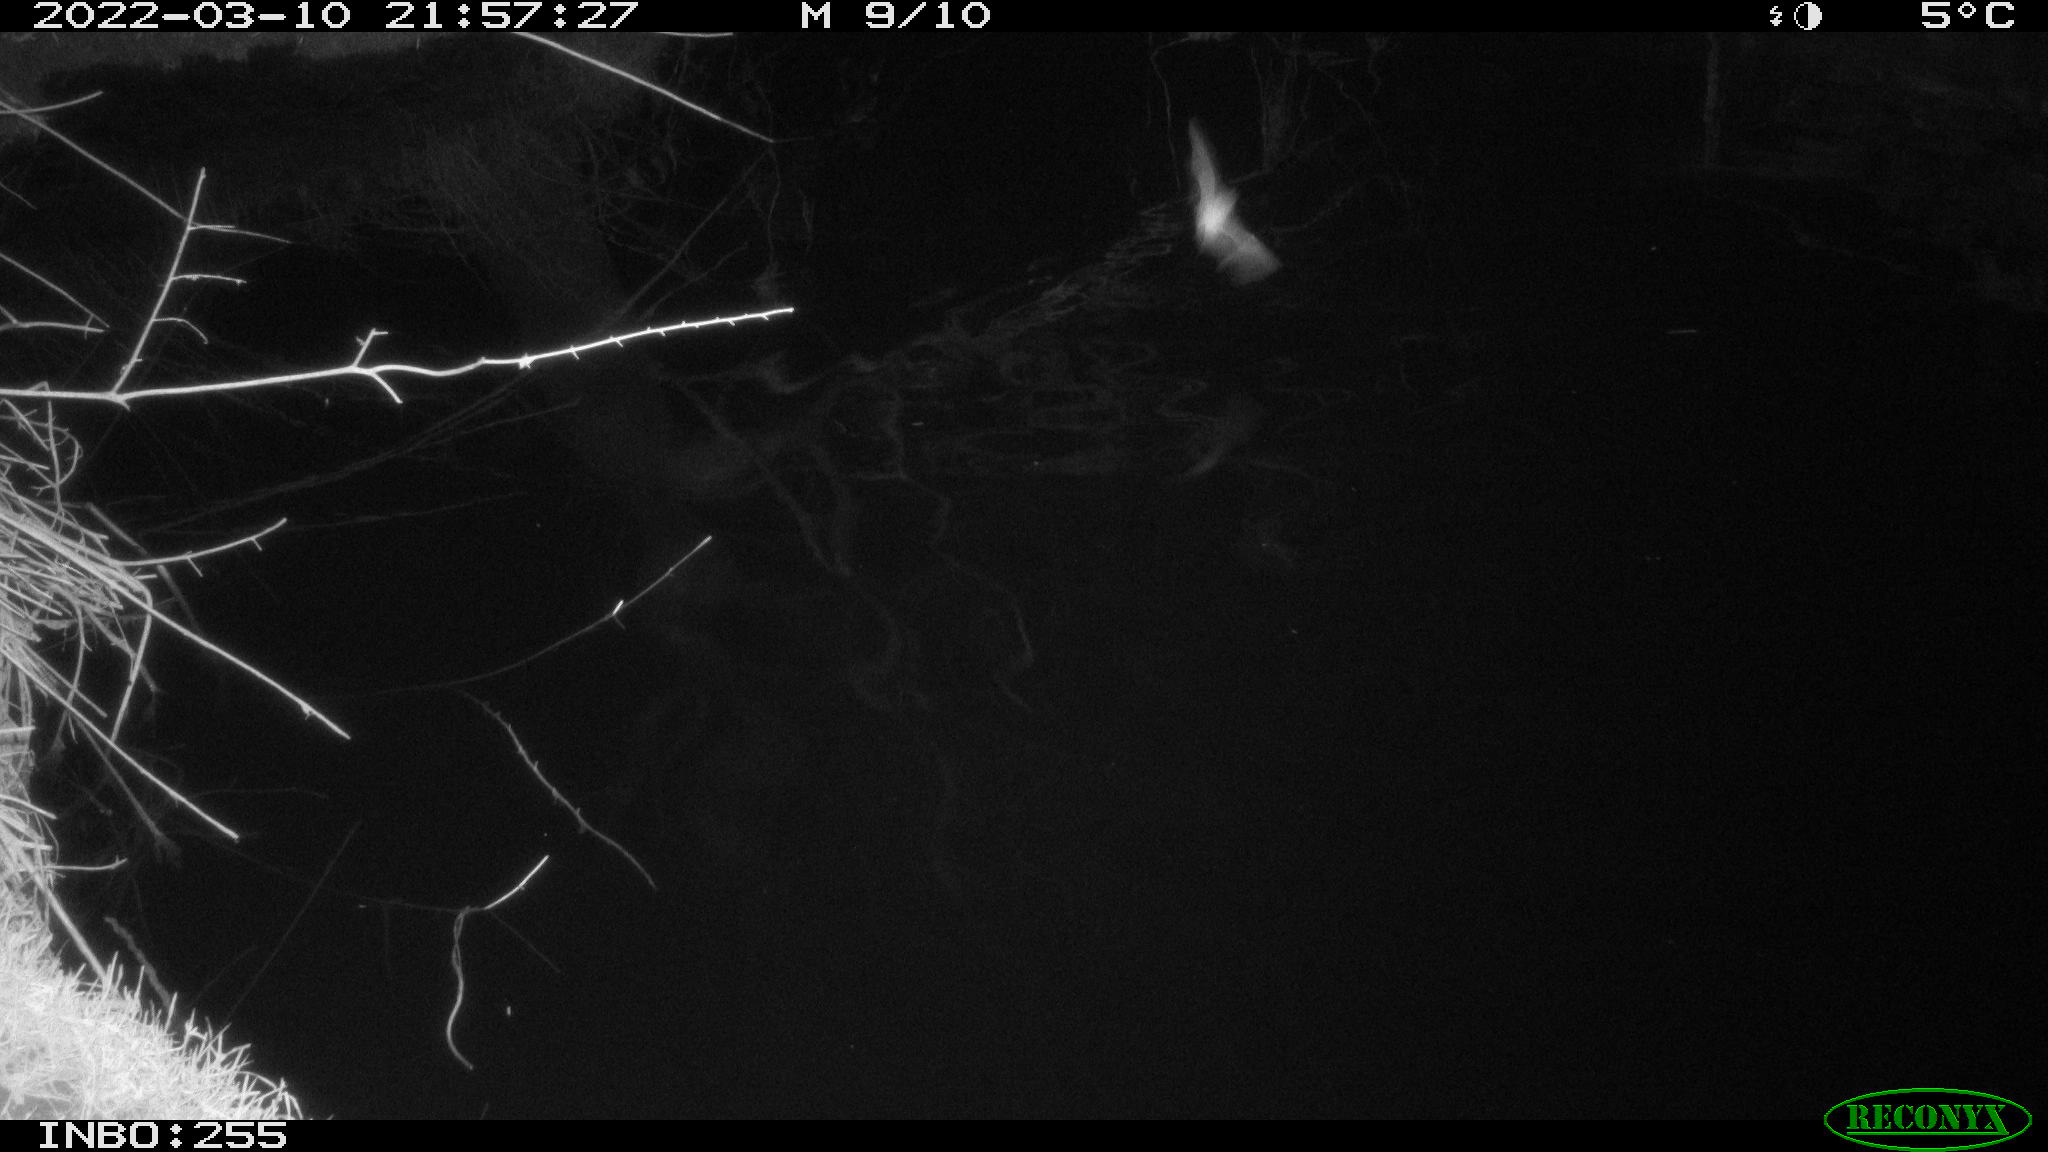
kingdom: Animalia
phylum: Chordata
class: Aves
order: Anseriformes
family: Anatidae
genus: Anas
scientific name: Anas platyrhynchos
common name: Mallard
